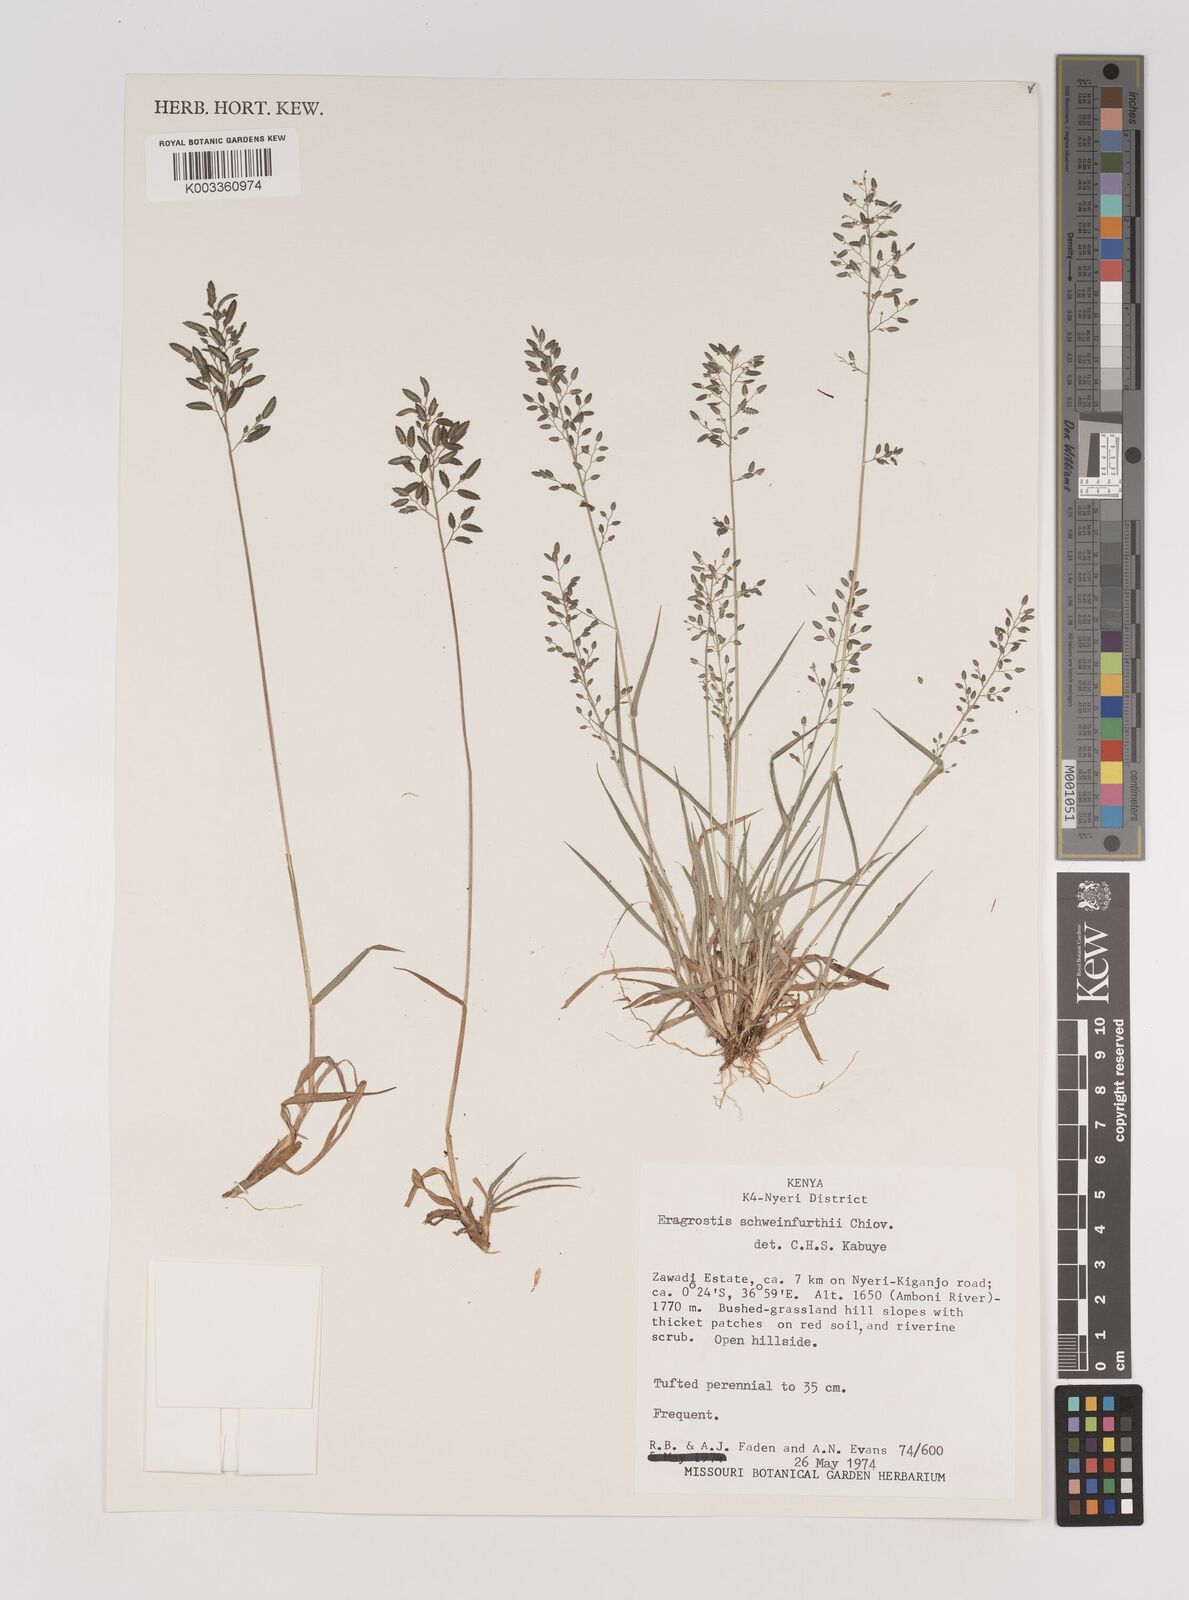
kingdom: Plantae
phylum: Tracheophyta
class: Liliopsida
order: Poales
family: Poaceae
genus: Eragrostis
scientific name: Eragrostis schweinfurthii
